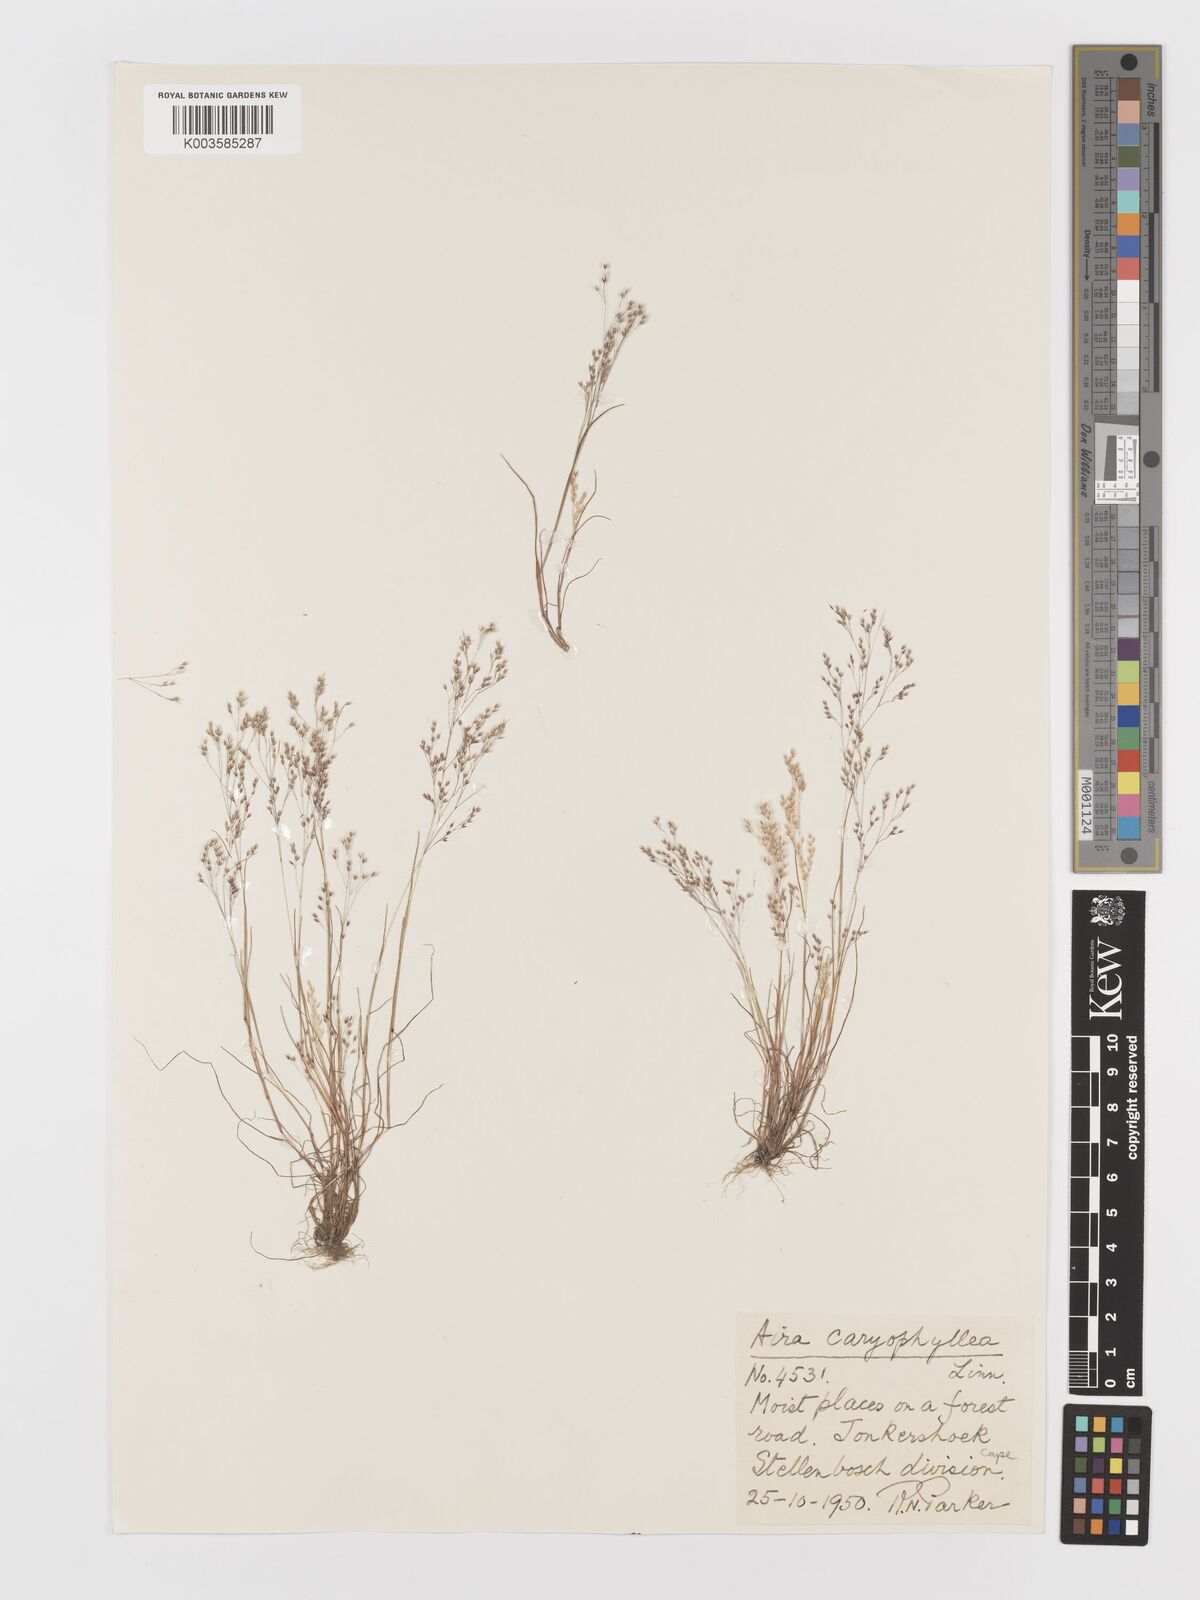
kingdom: Plantae
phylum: Tracheophyta
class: Liliopsida
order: Poales
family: Poaceae
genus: Aira
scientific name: Aira cupaniana
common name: Silver hairgrass
